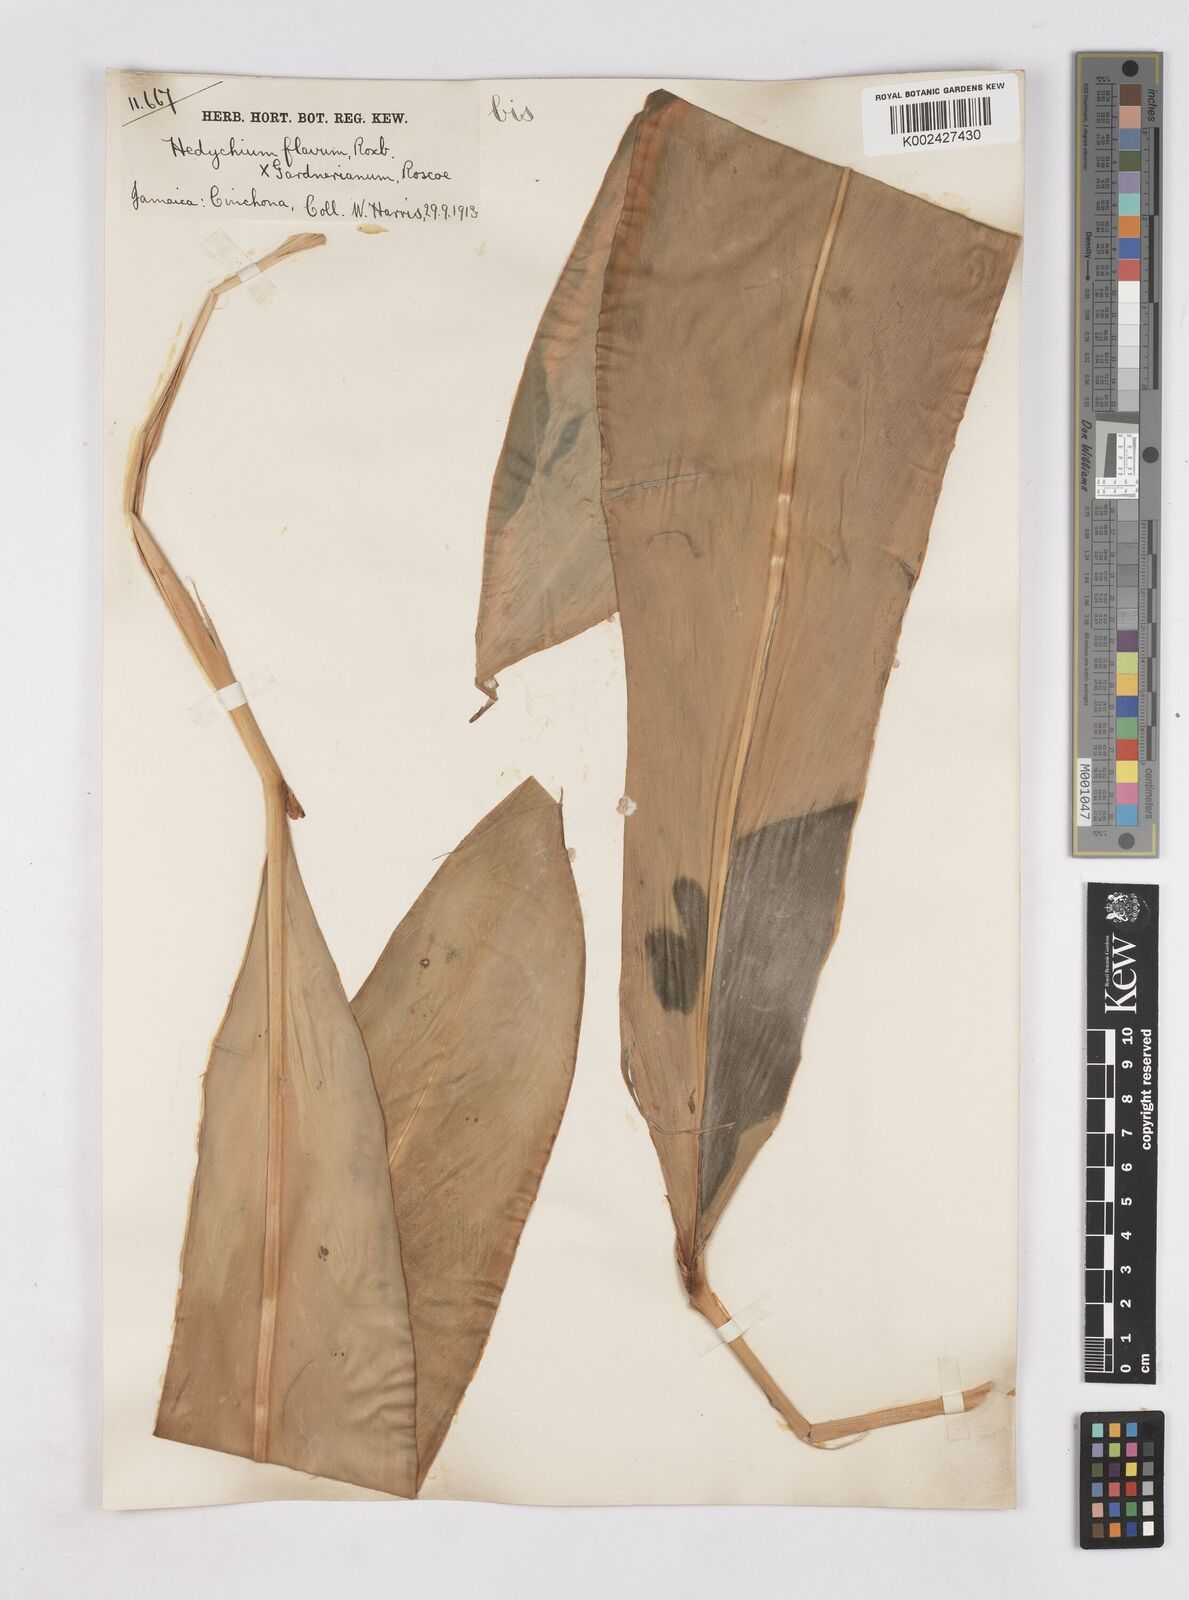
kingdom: Plantae
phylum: Tracheophyta
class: Liliopsida
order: Zingiberales
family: Zingiberaceae
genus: Hedychium
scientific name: Hedychium
